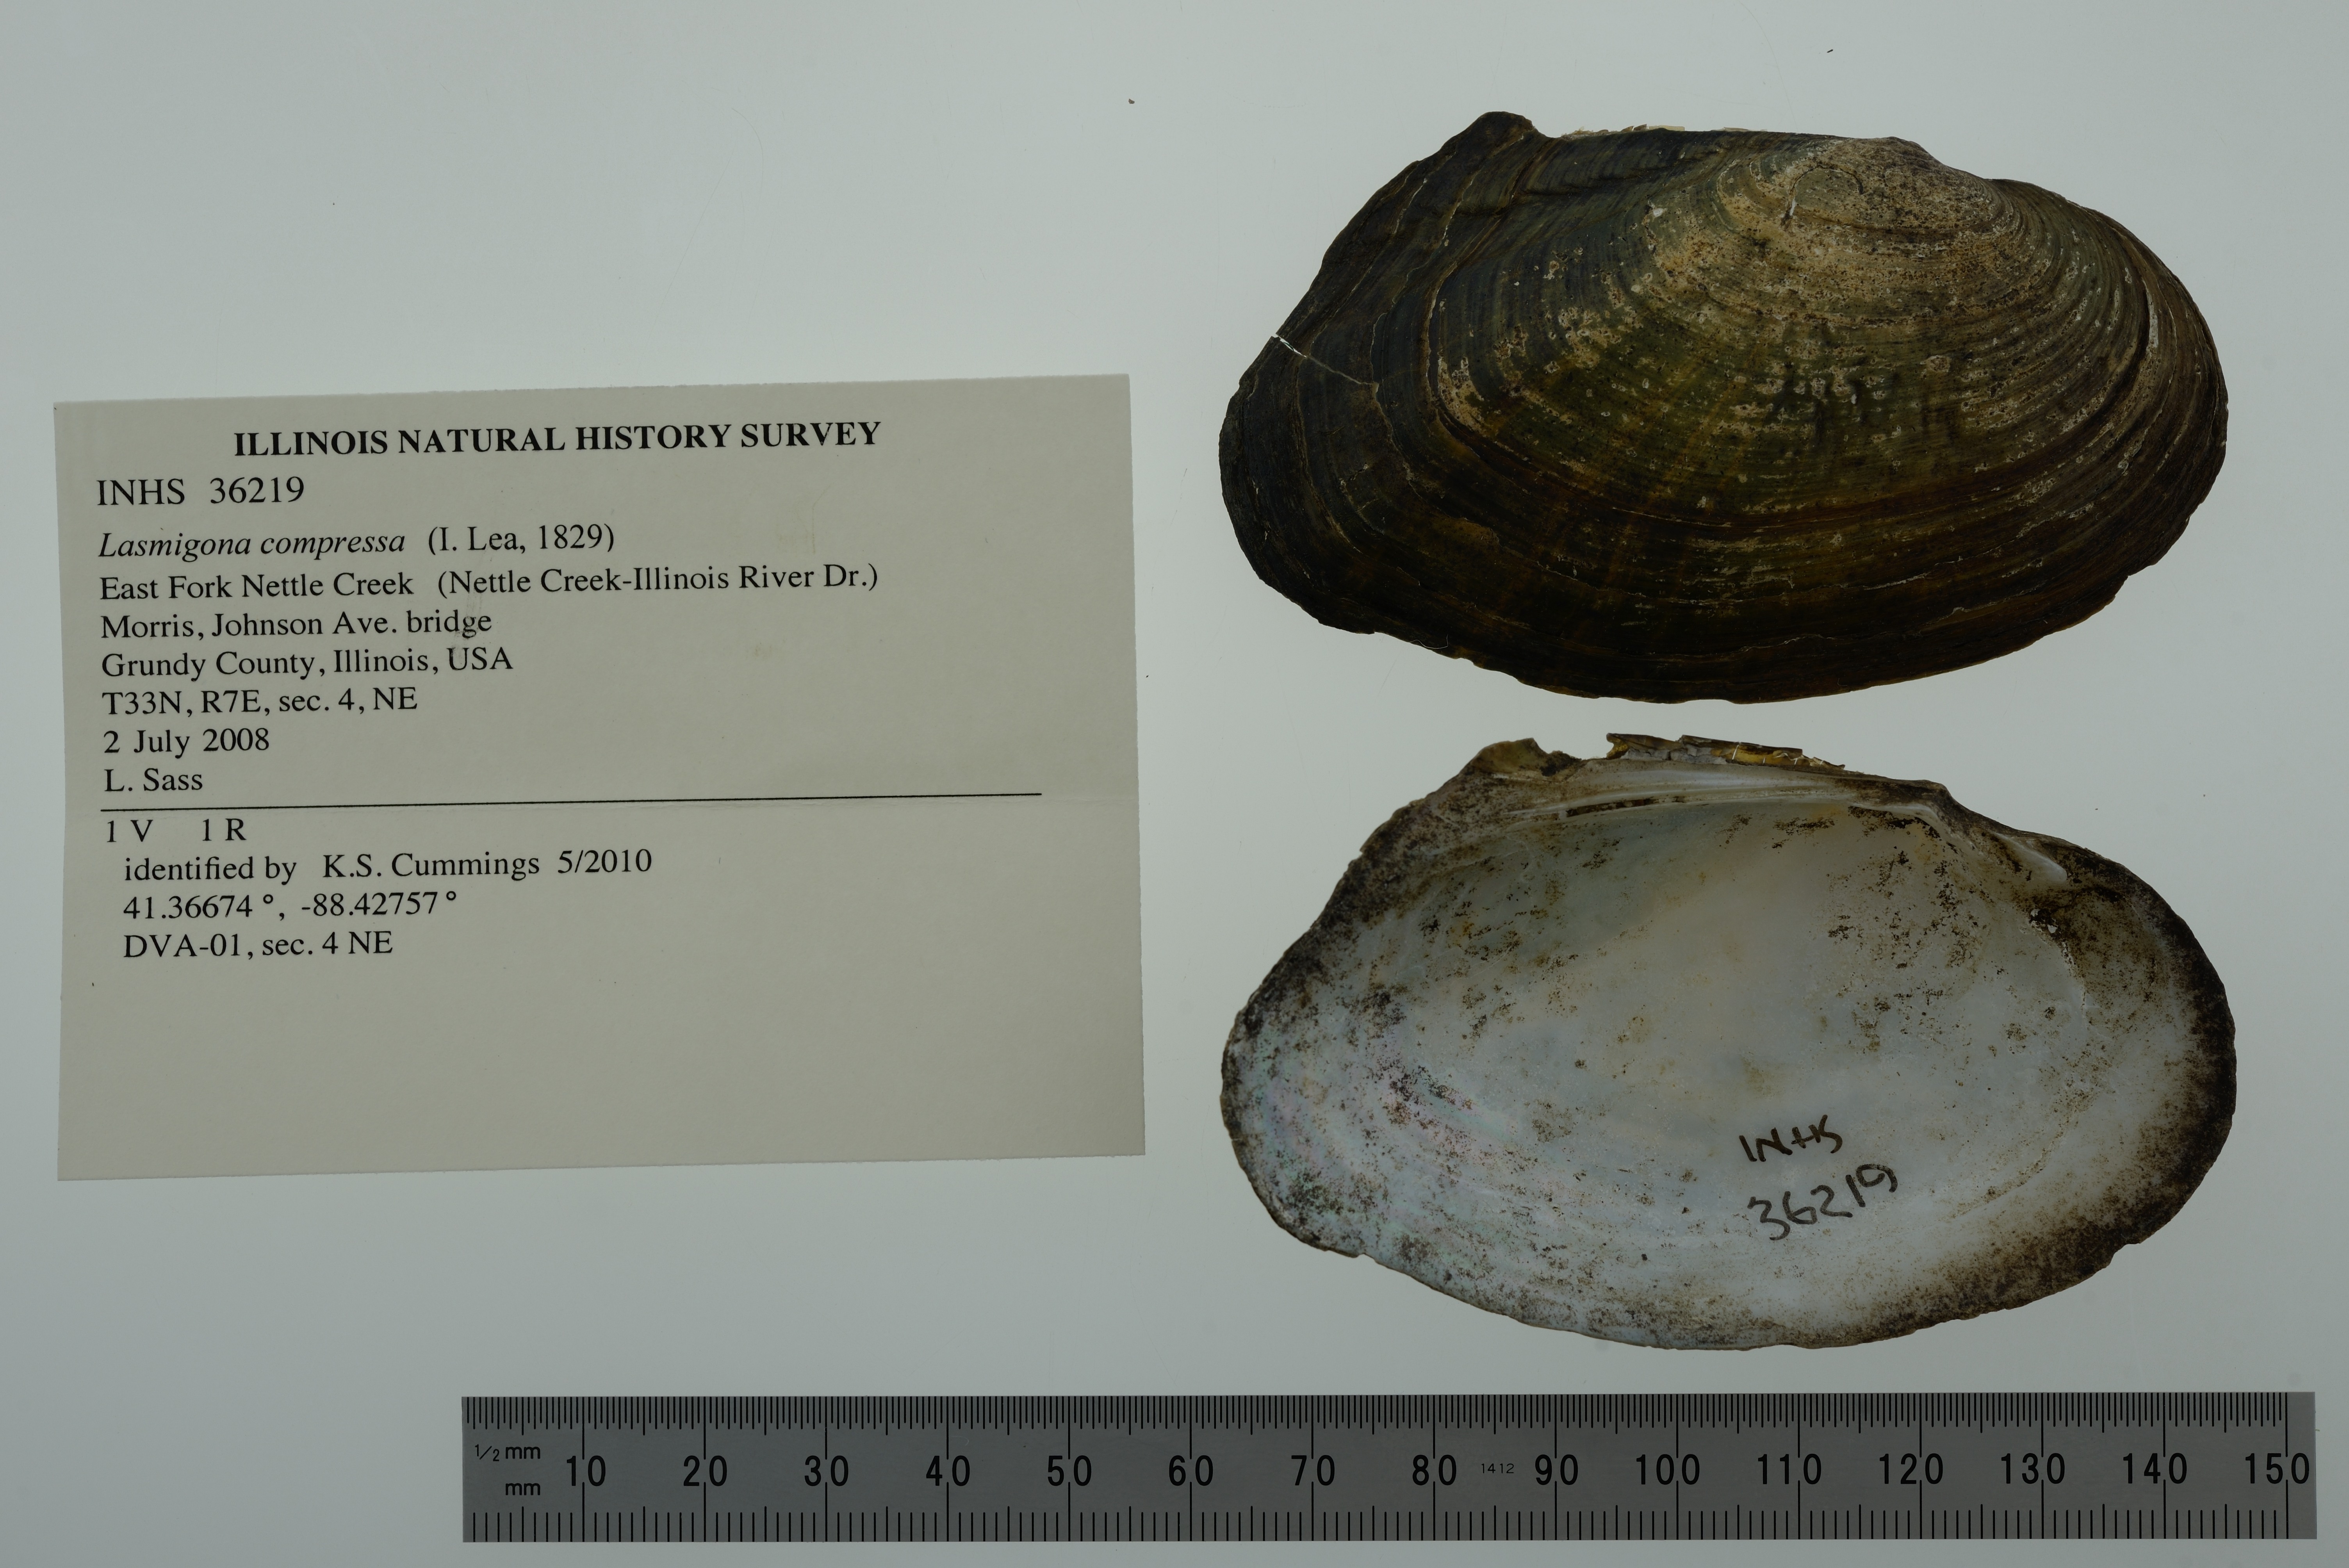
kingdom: Animalia
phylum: Mollusca
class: Bivalvia
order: Unionida
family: Unionidae
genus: Lasmigona
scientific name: Lasmigona compressa
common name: Creek heelsplitter
